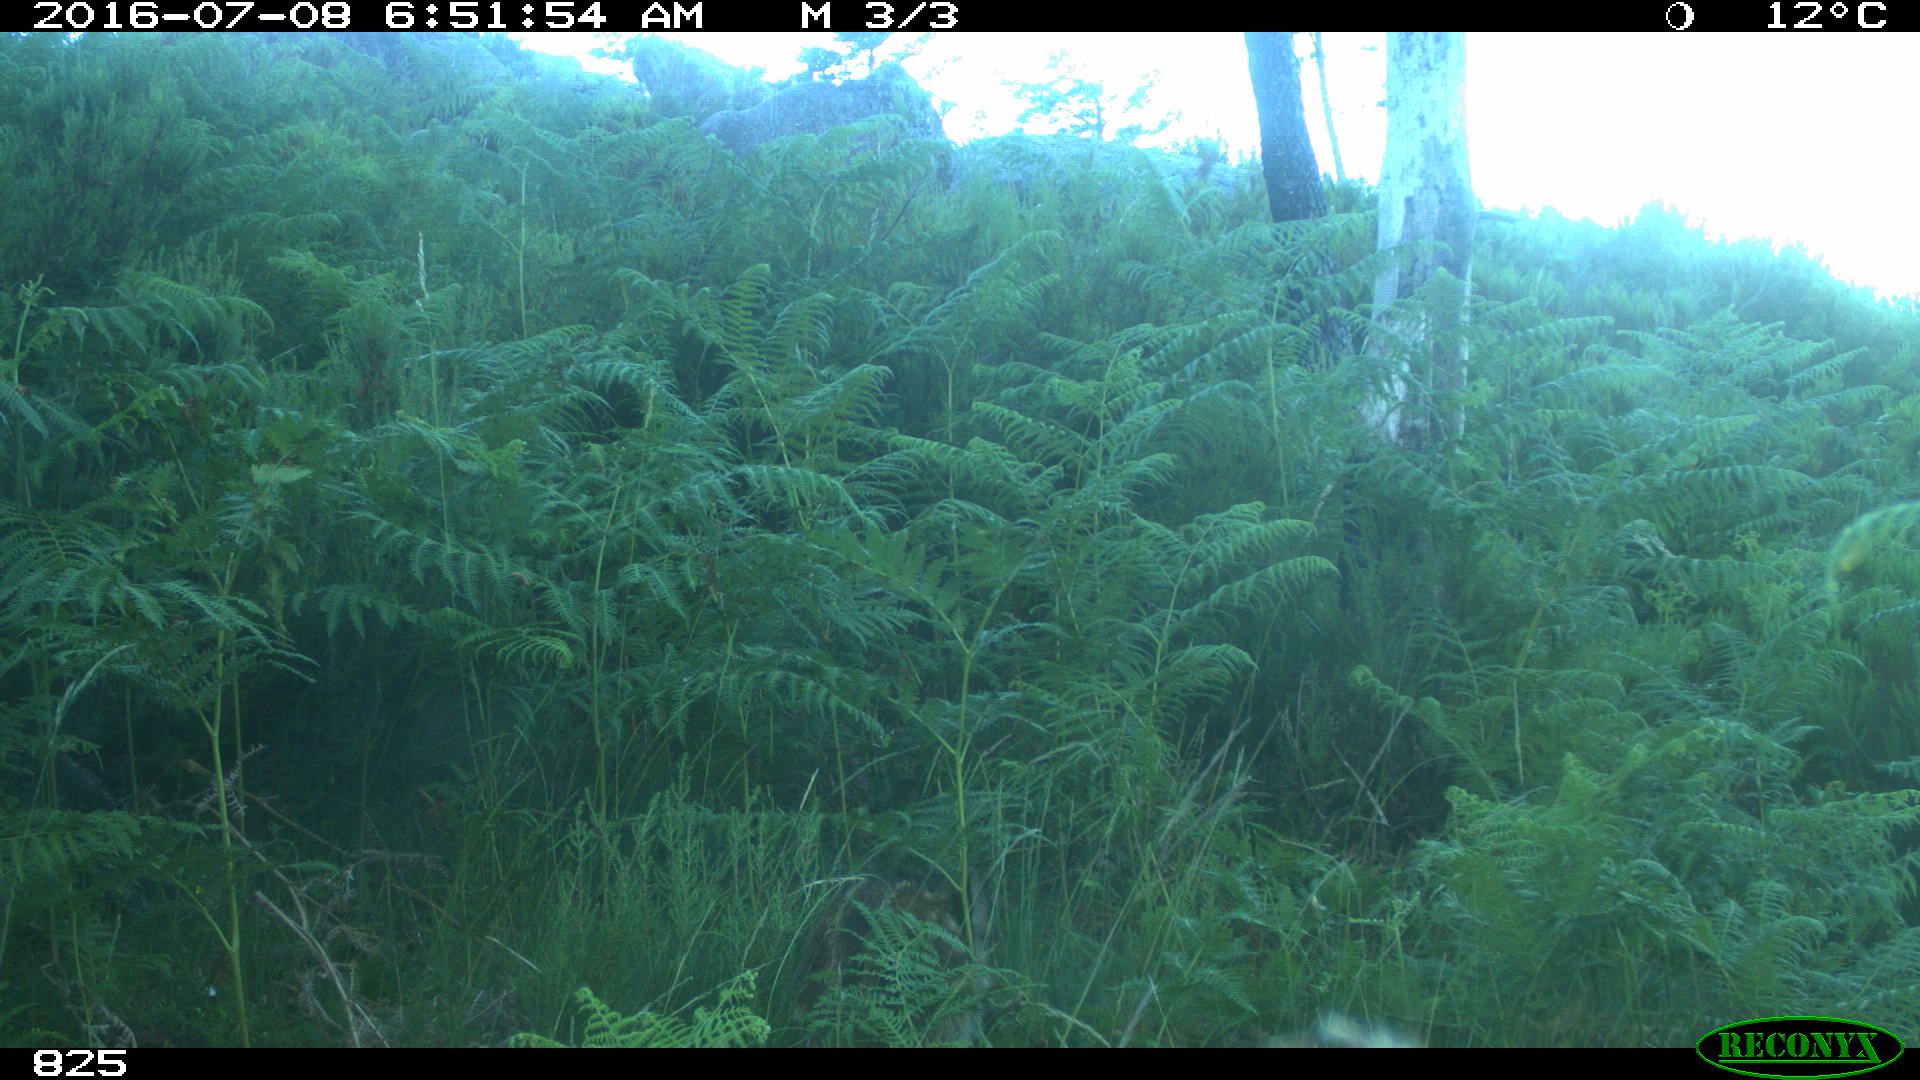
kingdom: Animalia
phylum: Chordata
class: Mammalia
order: Artiodactyla
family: Suidae
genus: Sus
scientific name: Sus scrofa
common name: Wild boar
